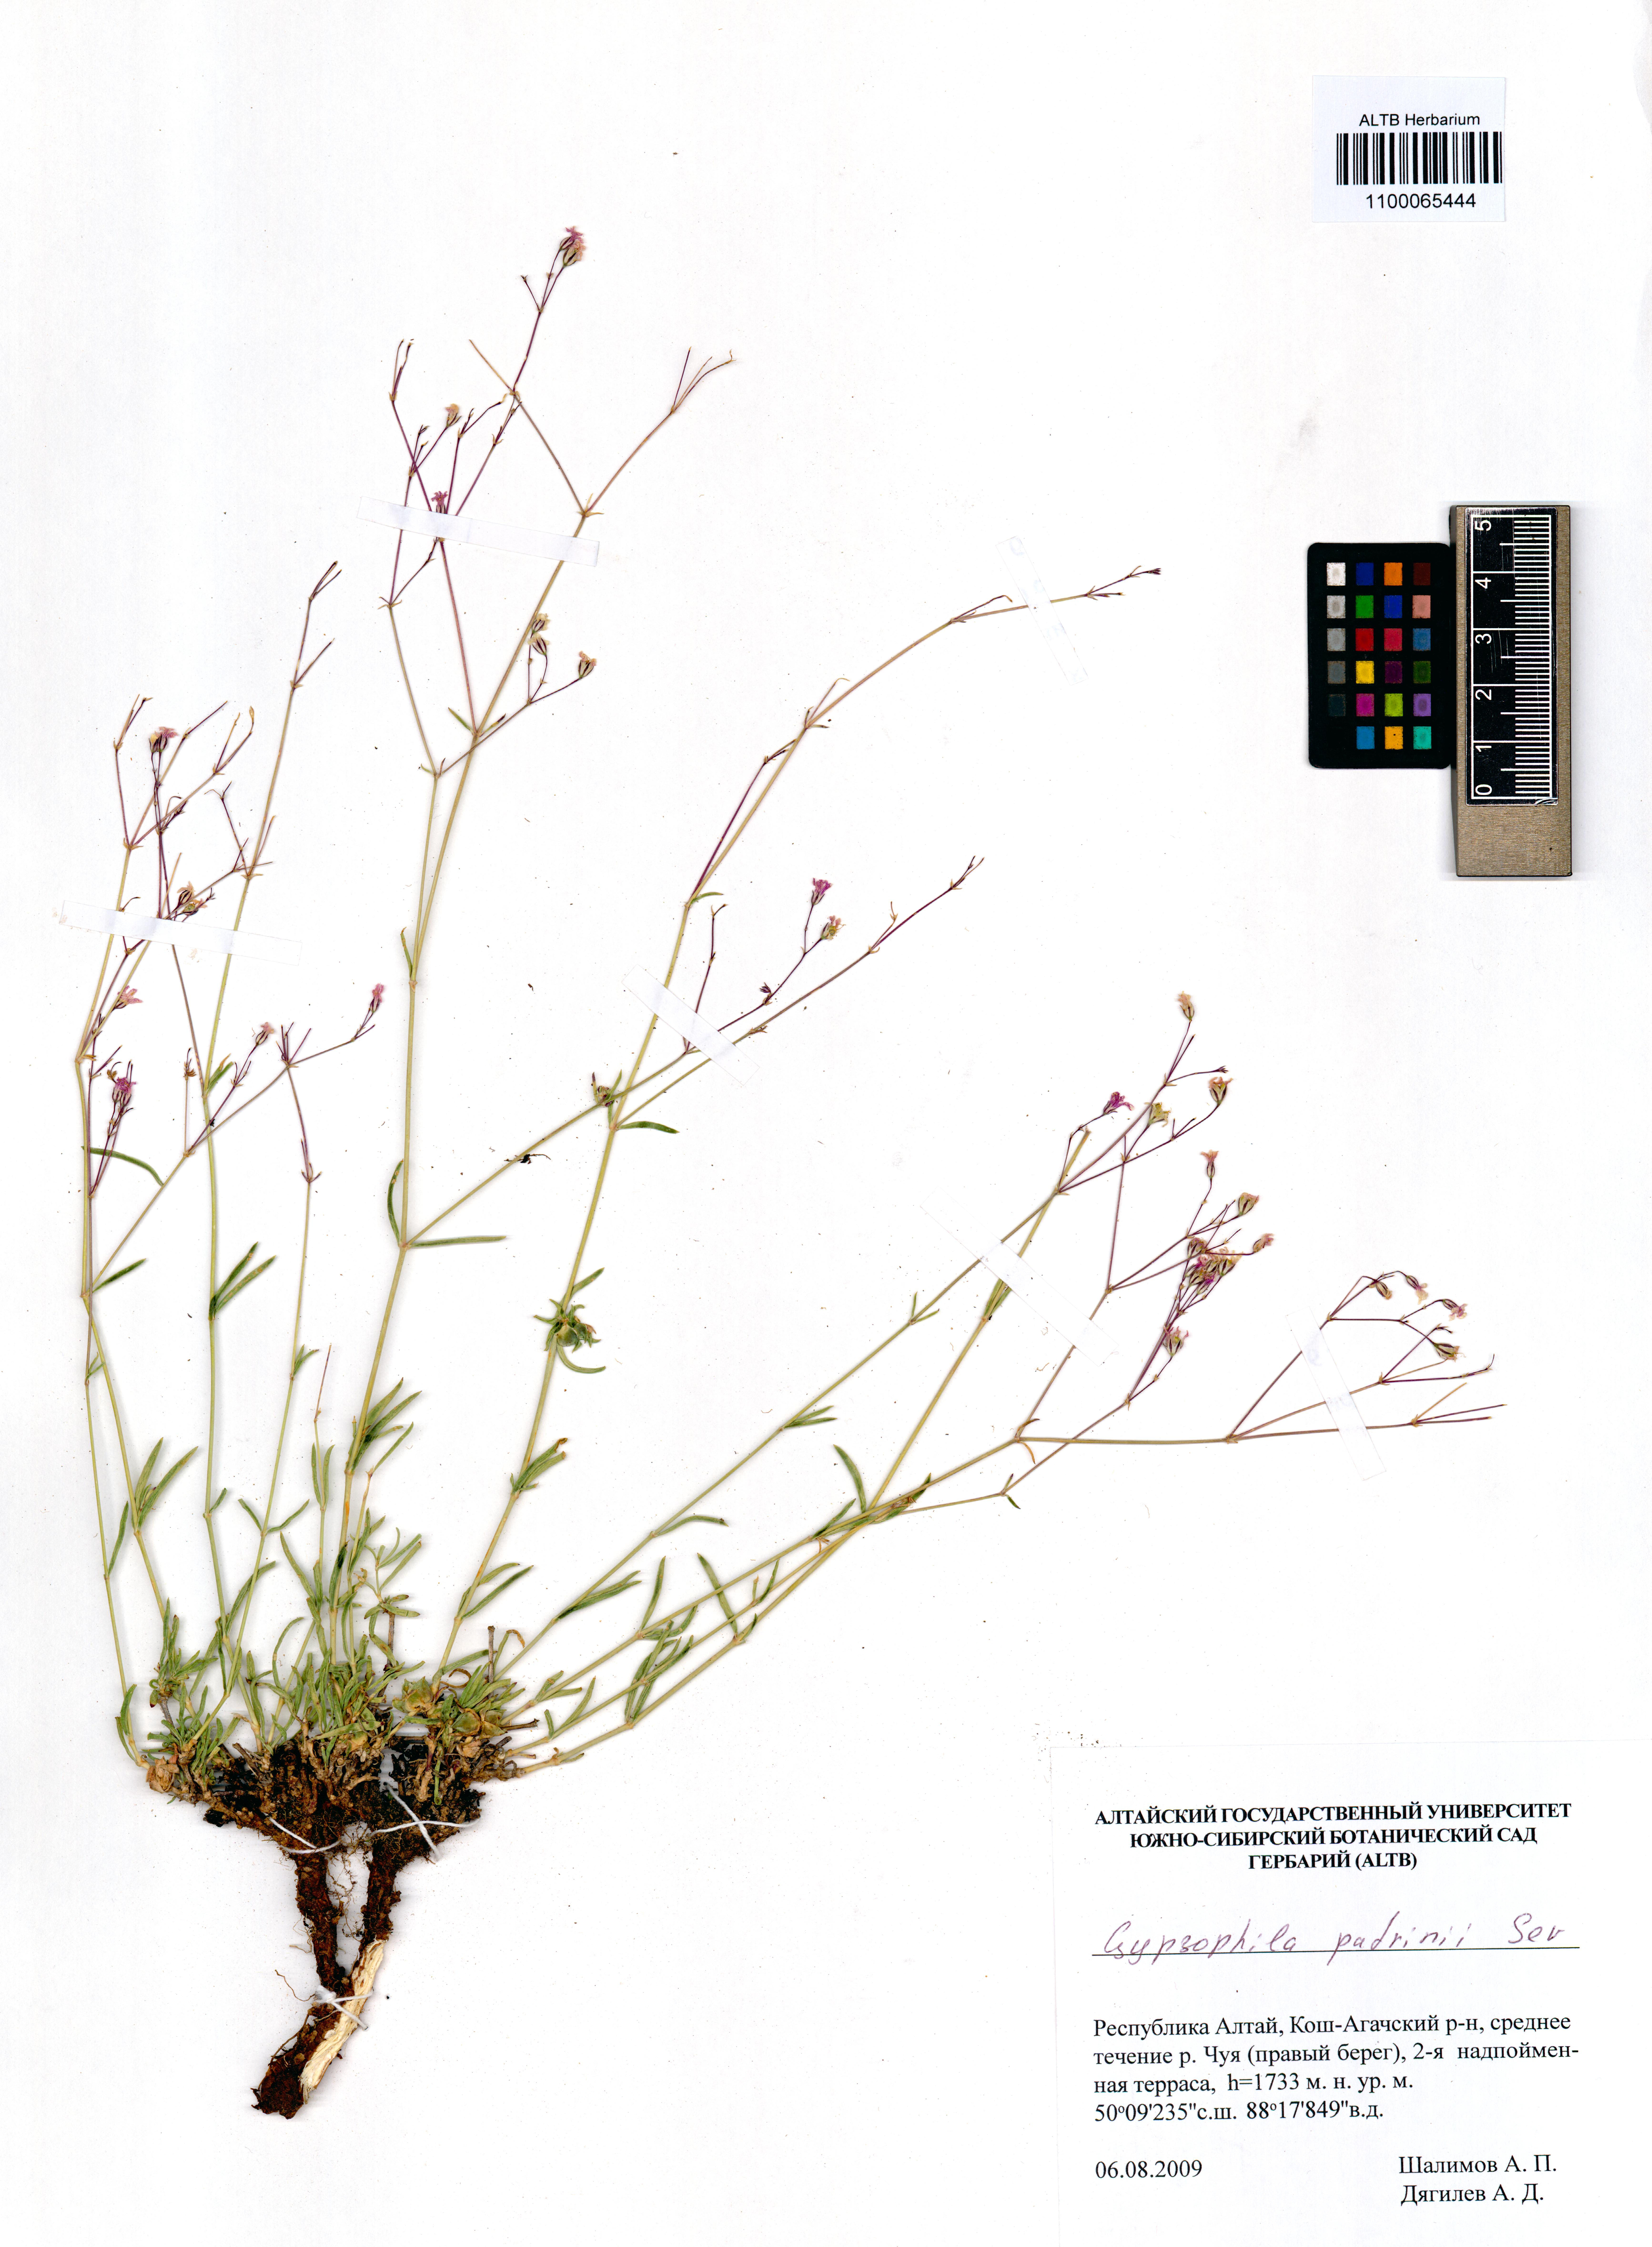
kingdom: Plantae
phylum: Tracheophyta
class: Magnoliopsida
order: Caryophyllales
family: Caryophyllaceae
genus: Gypsophila
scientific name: Gypsophila patrinii
